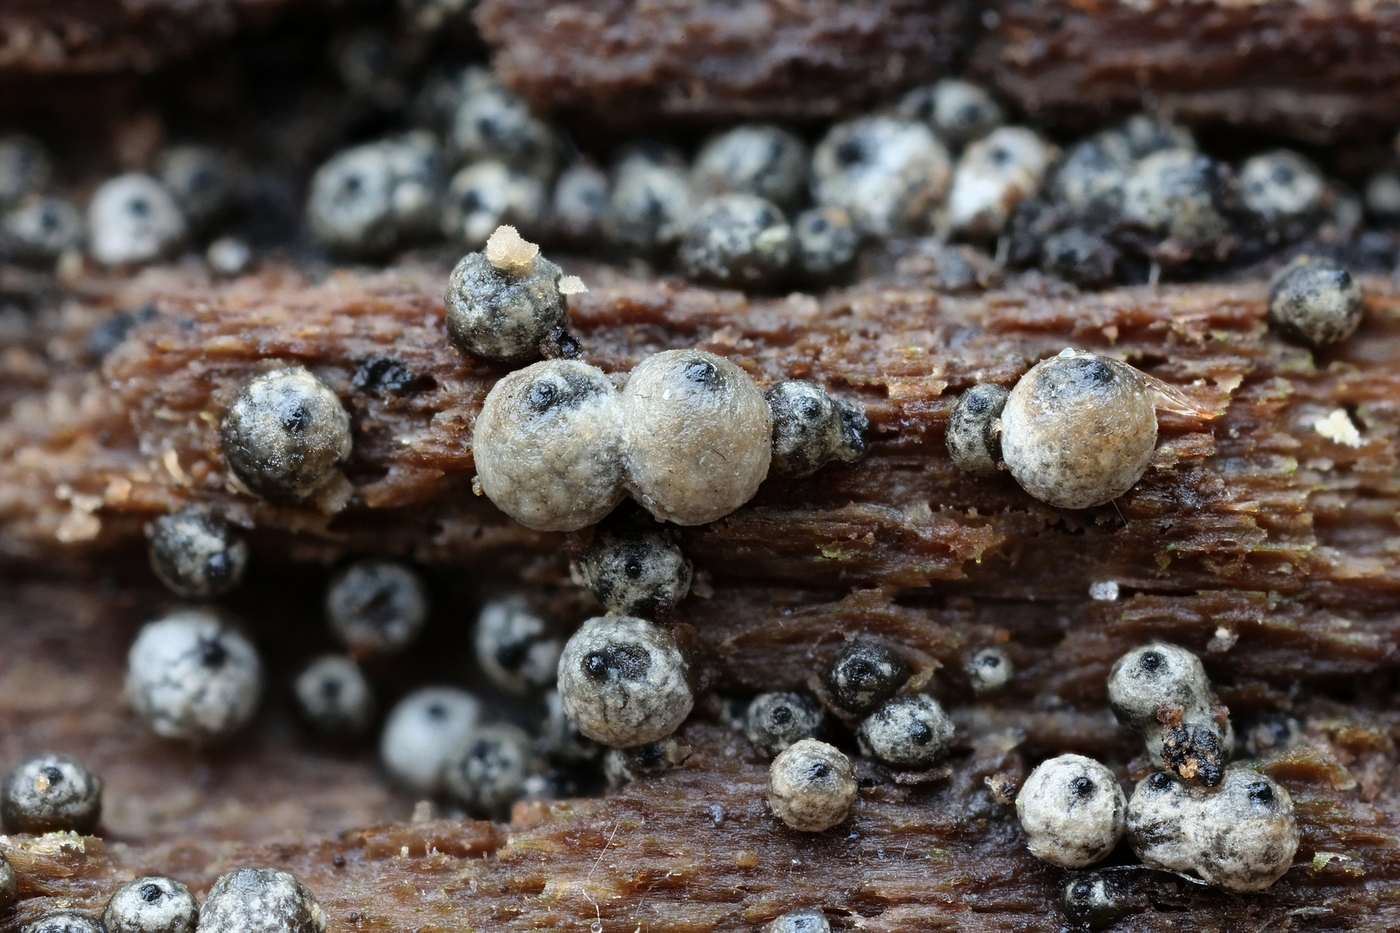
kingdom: Fungi
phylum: Ascomycota
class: Sordariomycetes
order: Sordariales
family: Lasiosphaeriaceae
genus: Lasiosphaeria
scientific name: Lasiosphaeria ovina
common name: fåre-kernesvamp
